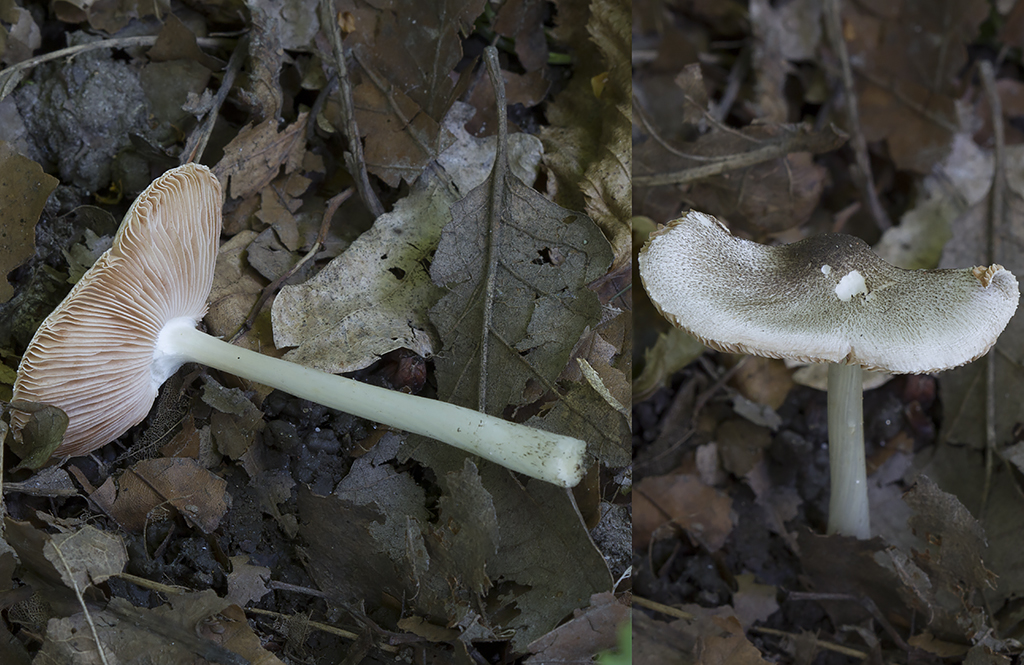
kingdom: Fungi
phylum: Basidiomycota
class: Agaricomycetes
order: Agaricales
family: Pluteaceae
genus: Pluteus
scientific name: Pluteus ephebeus
